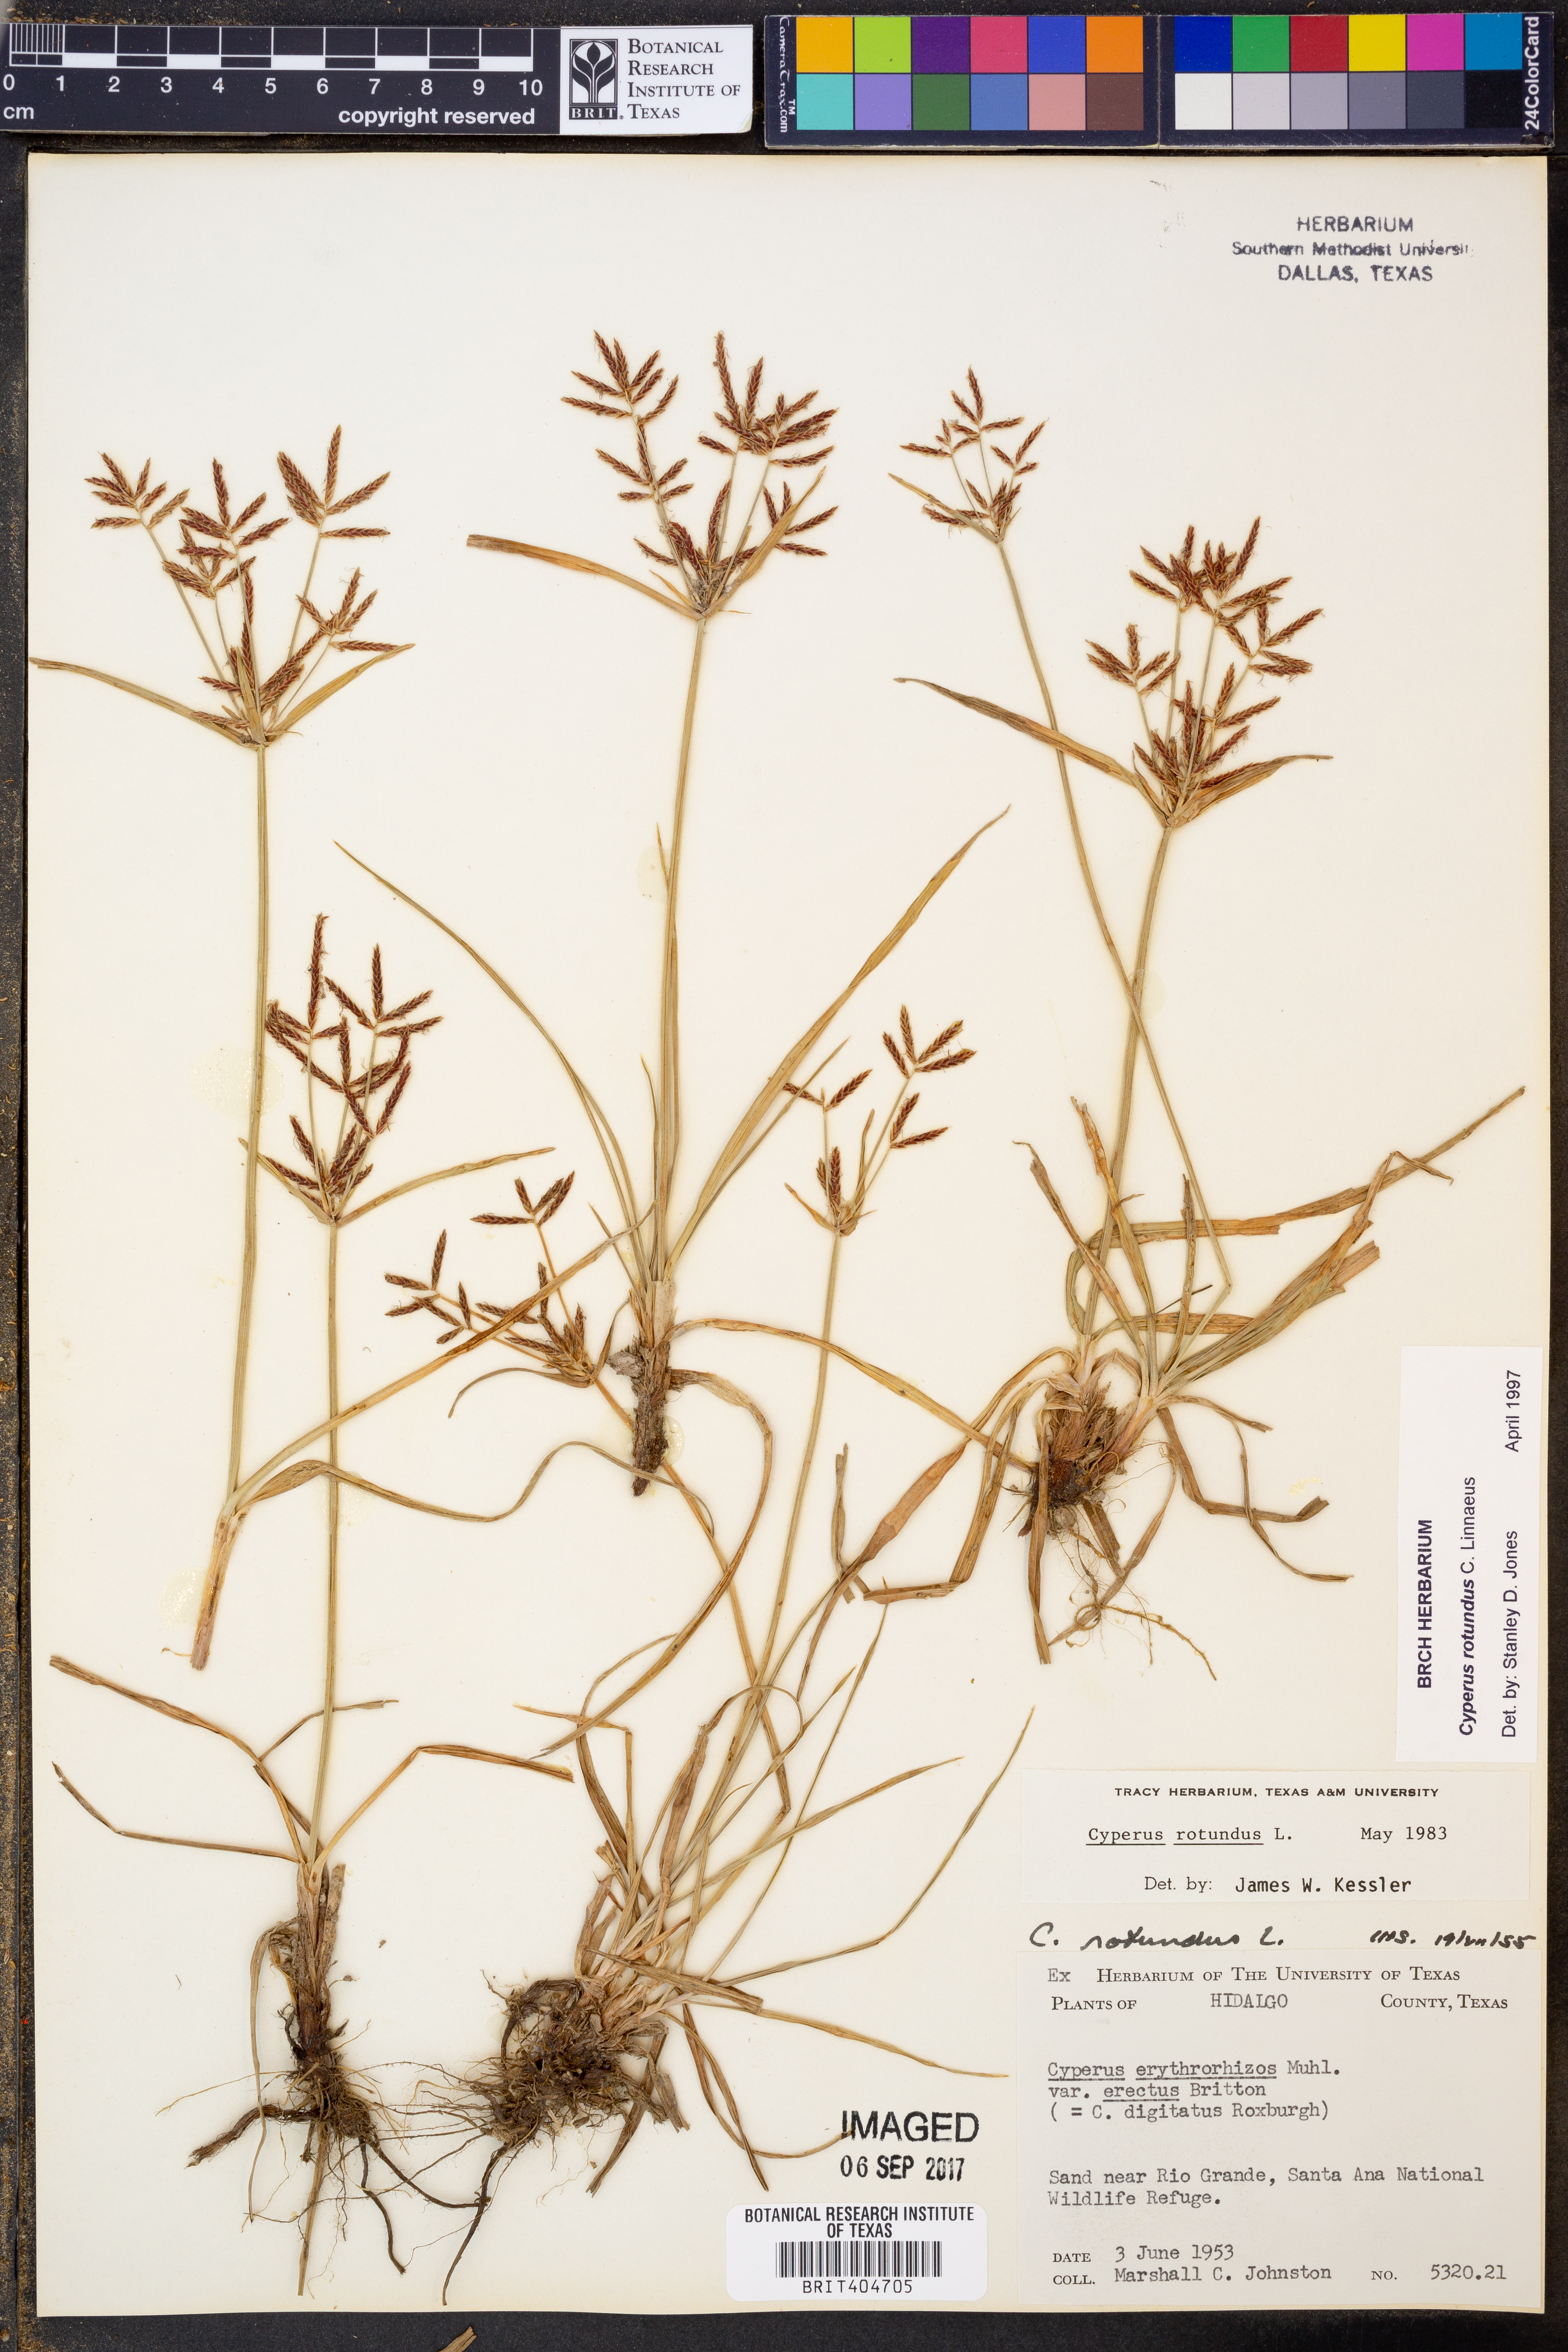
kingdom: Plantae
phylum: Tracheophyta
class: Liliopsida
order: Poales
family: Cyperaceae
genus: Cyperus
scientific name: Cyperus rotundus
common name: Nutgrass
